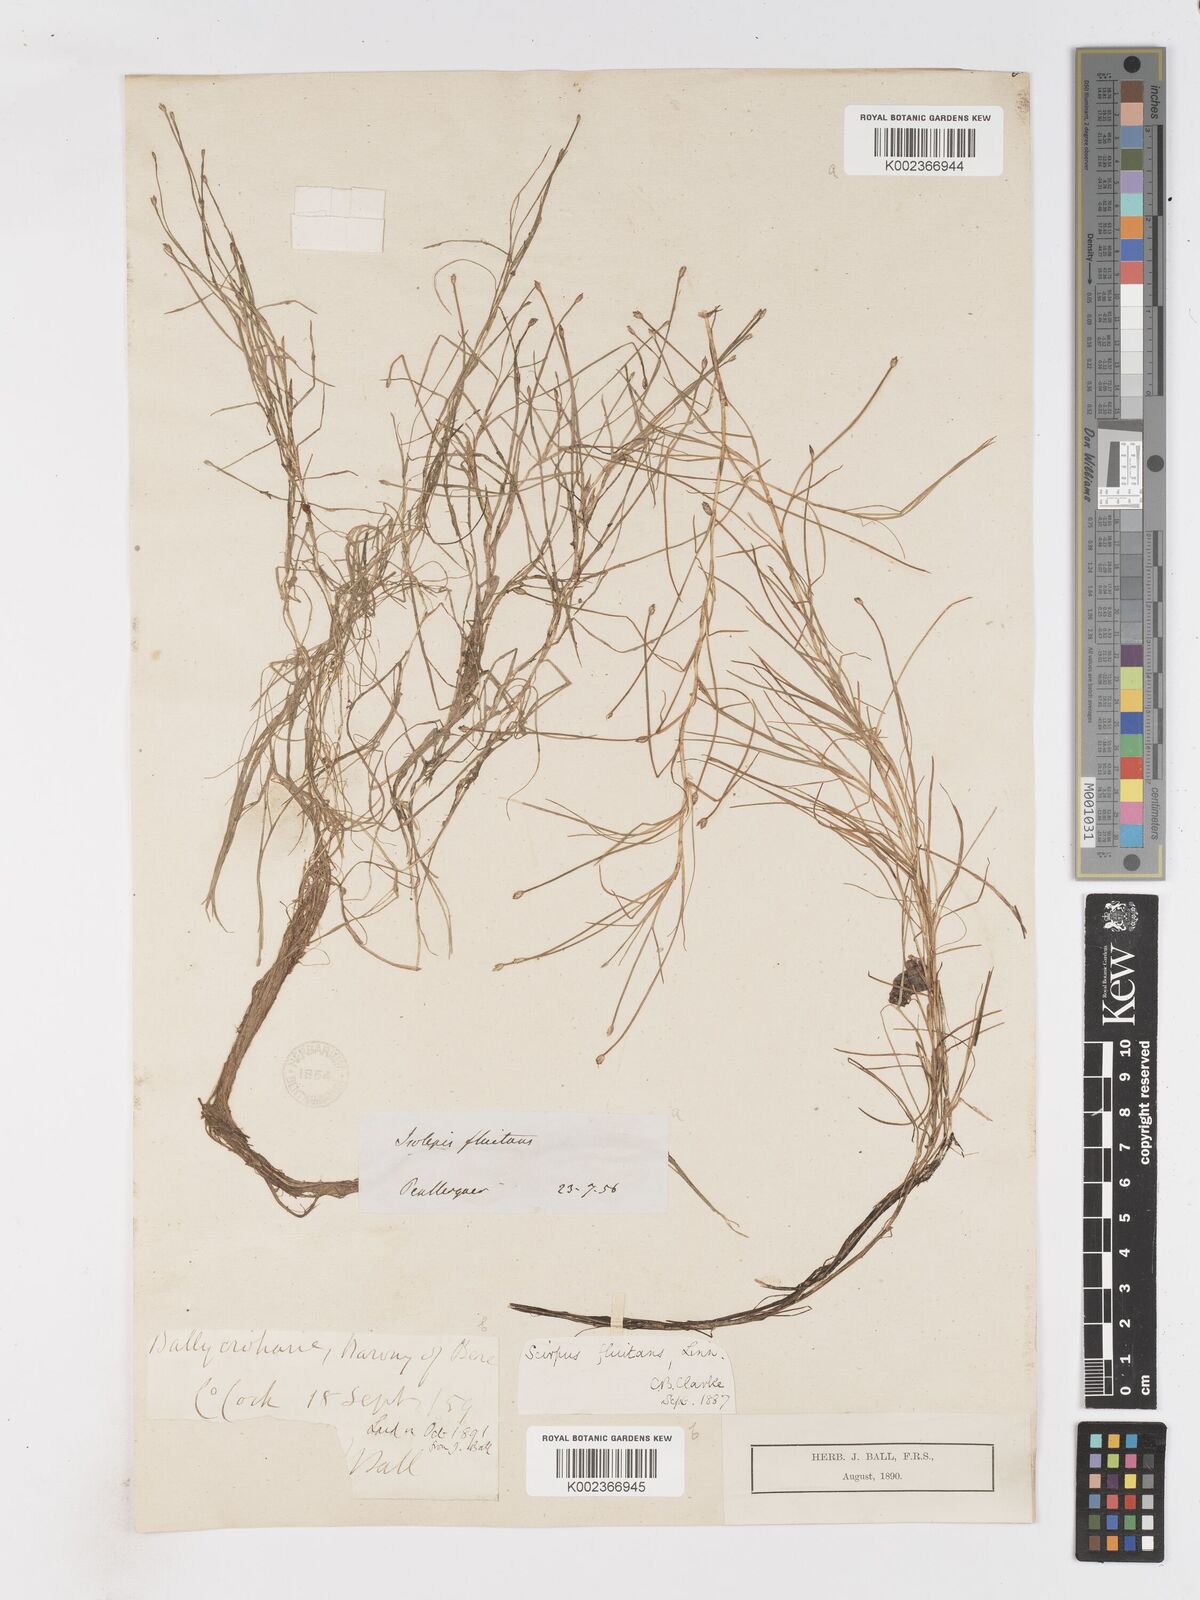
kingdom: Plantae
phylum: Tracheophyta
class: Liliopsida
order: Poales
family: Cyperaceae
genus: Isolepis
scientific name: Isolepis fluitans
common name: Floating club-rush
